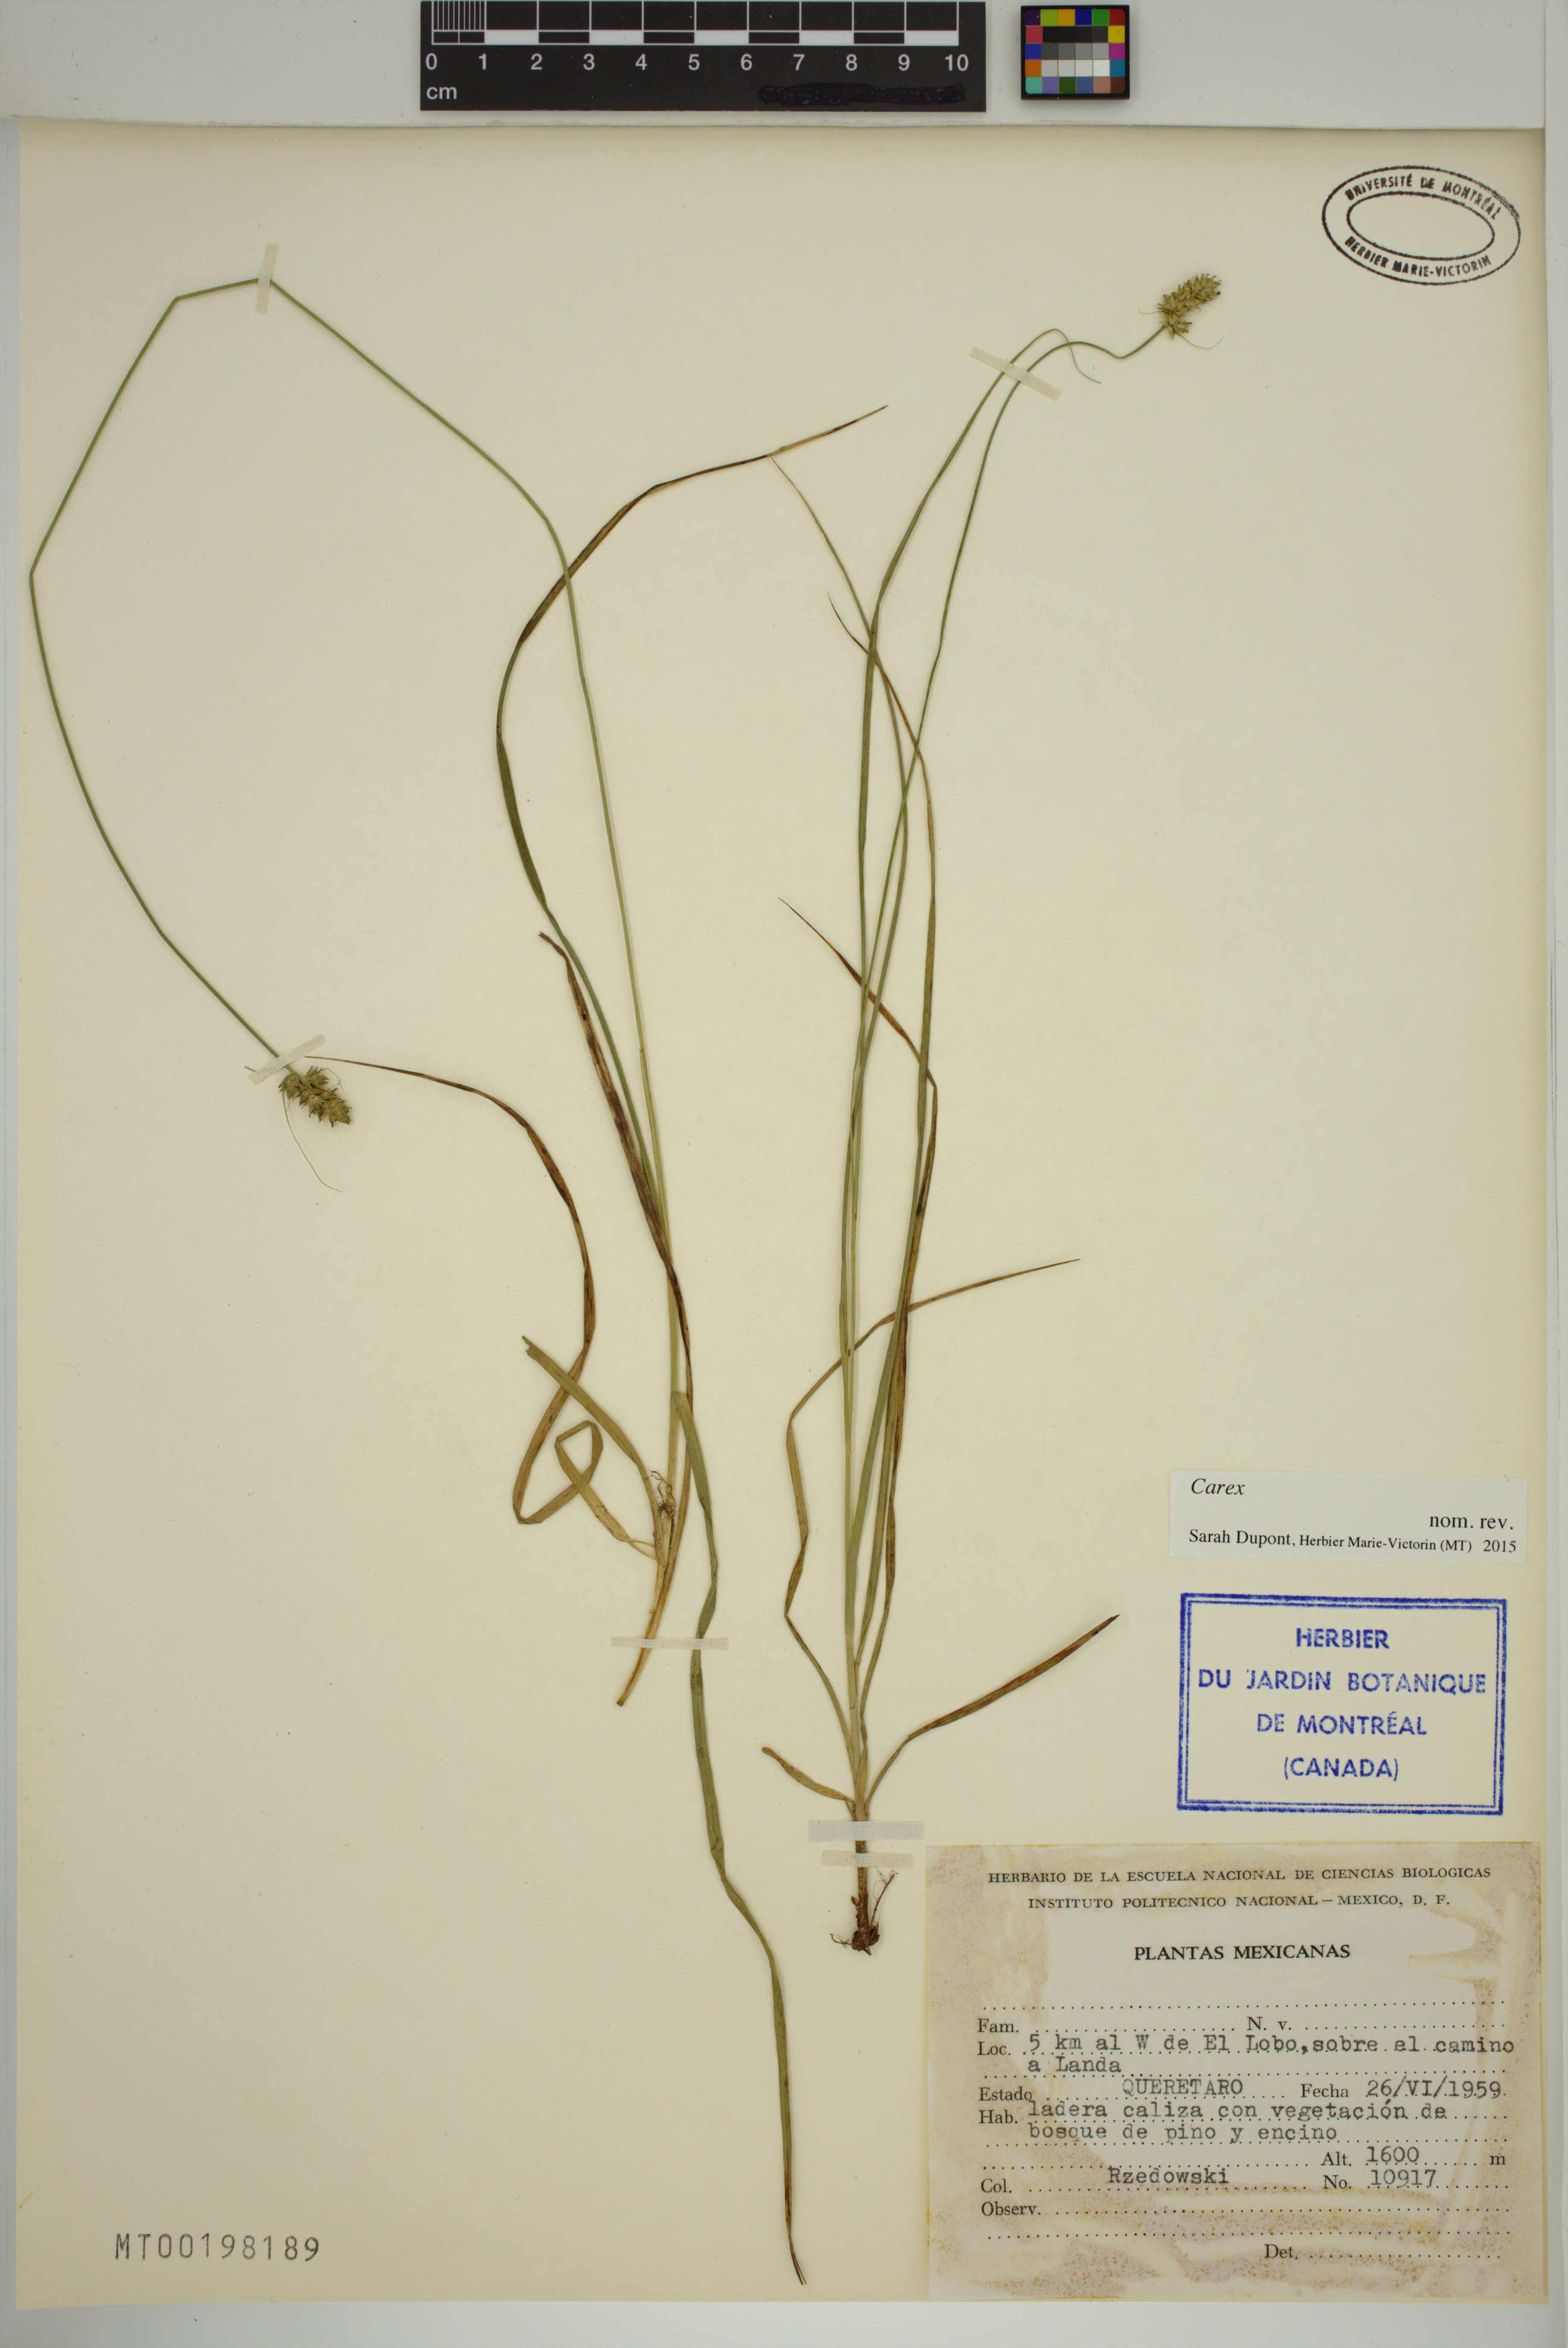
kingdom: Plantae
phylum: Tracheophyta
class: Liliopsida
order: Poales
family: Cyperaceae
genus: Carex
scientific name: Carex
